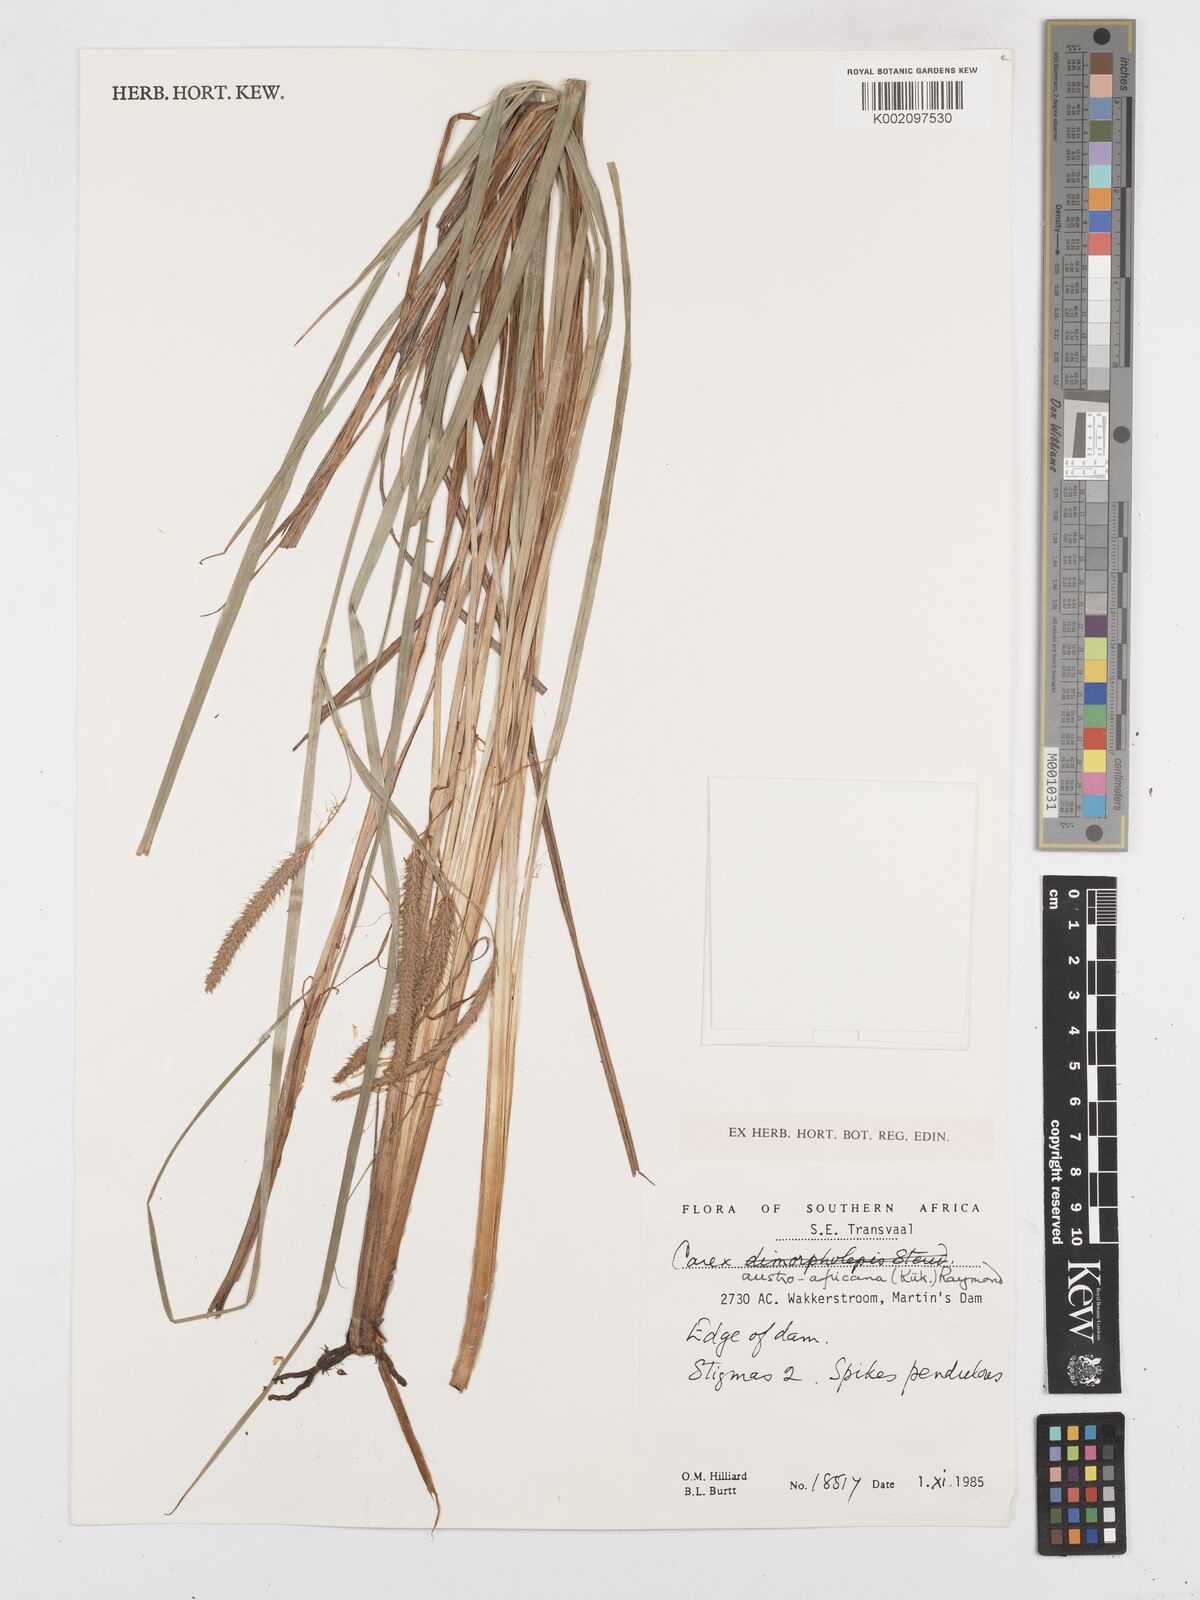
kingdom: Plantae
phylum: Tracheophyta
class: Liliopsida
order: Poales
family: Cyperaceae
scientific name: Cyperaceae
